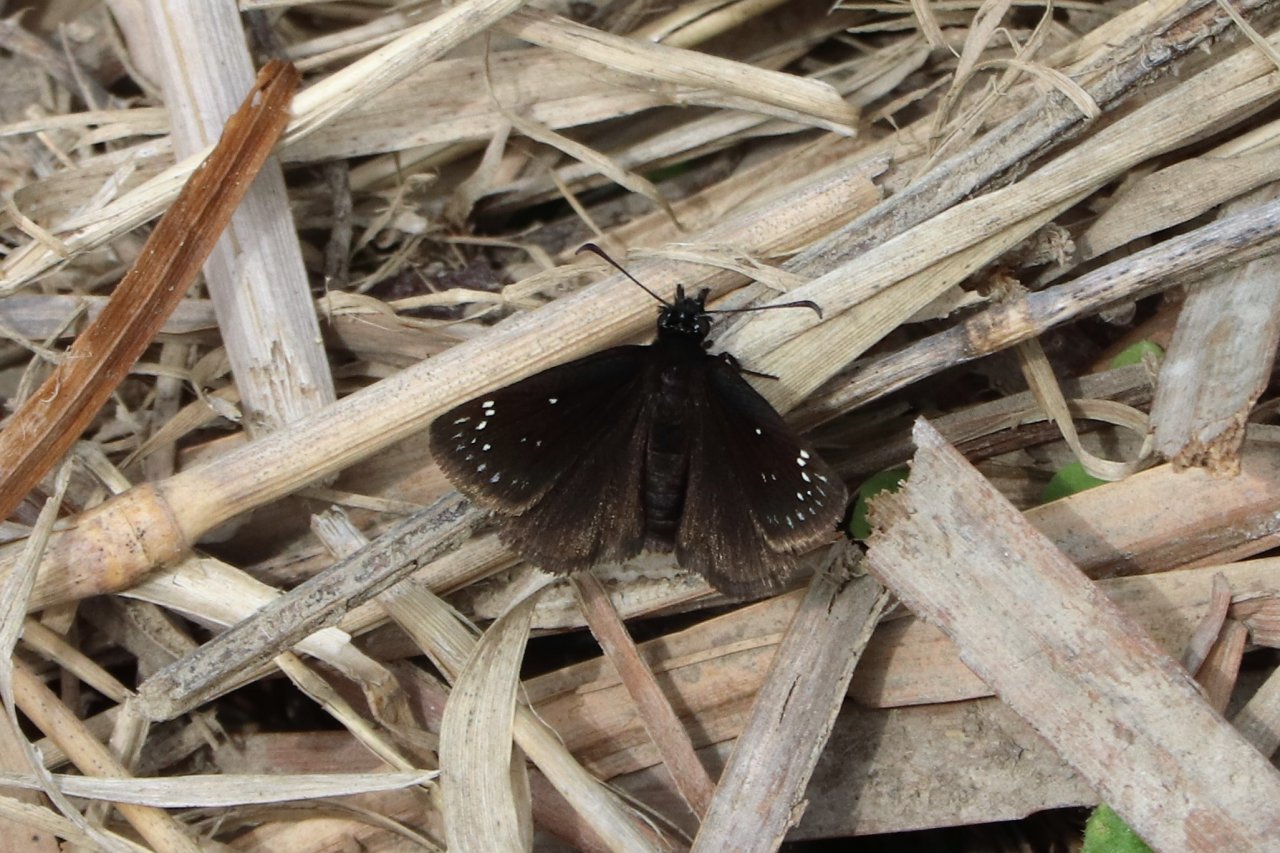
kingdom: Animalia
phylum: Arthropoda
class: Insecta
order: Lepidoptera
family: Hesperiidae
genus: Pholisora
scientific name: Pholisora catullus
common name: Common Sootywing
